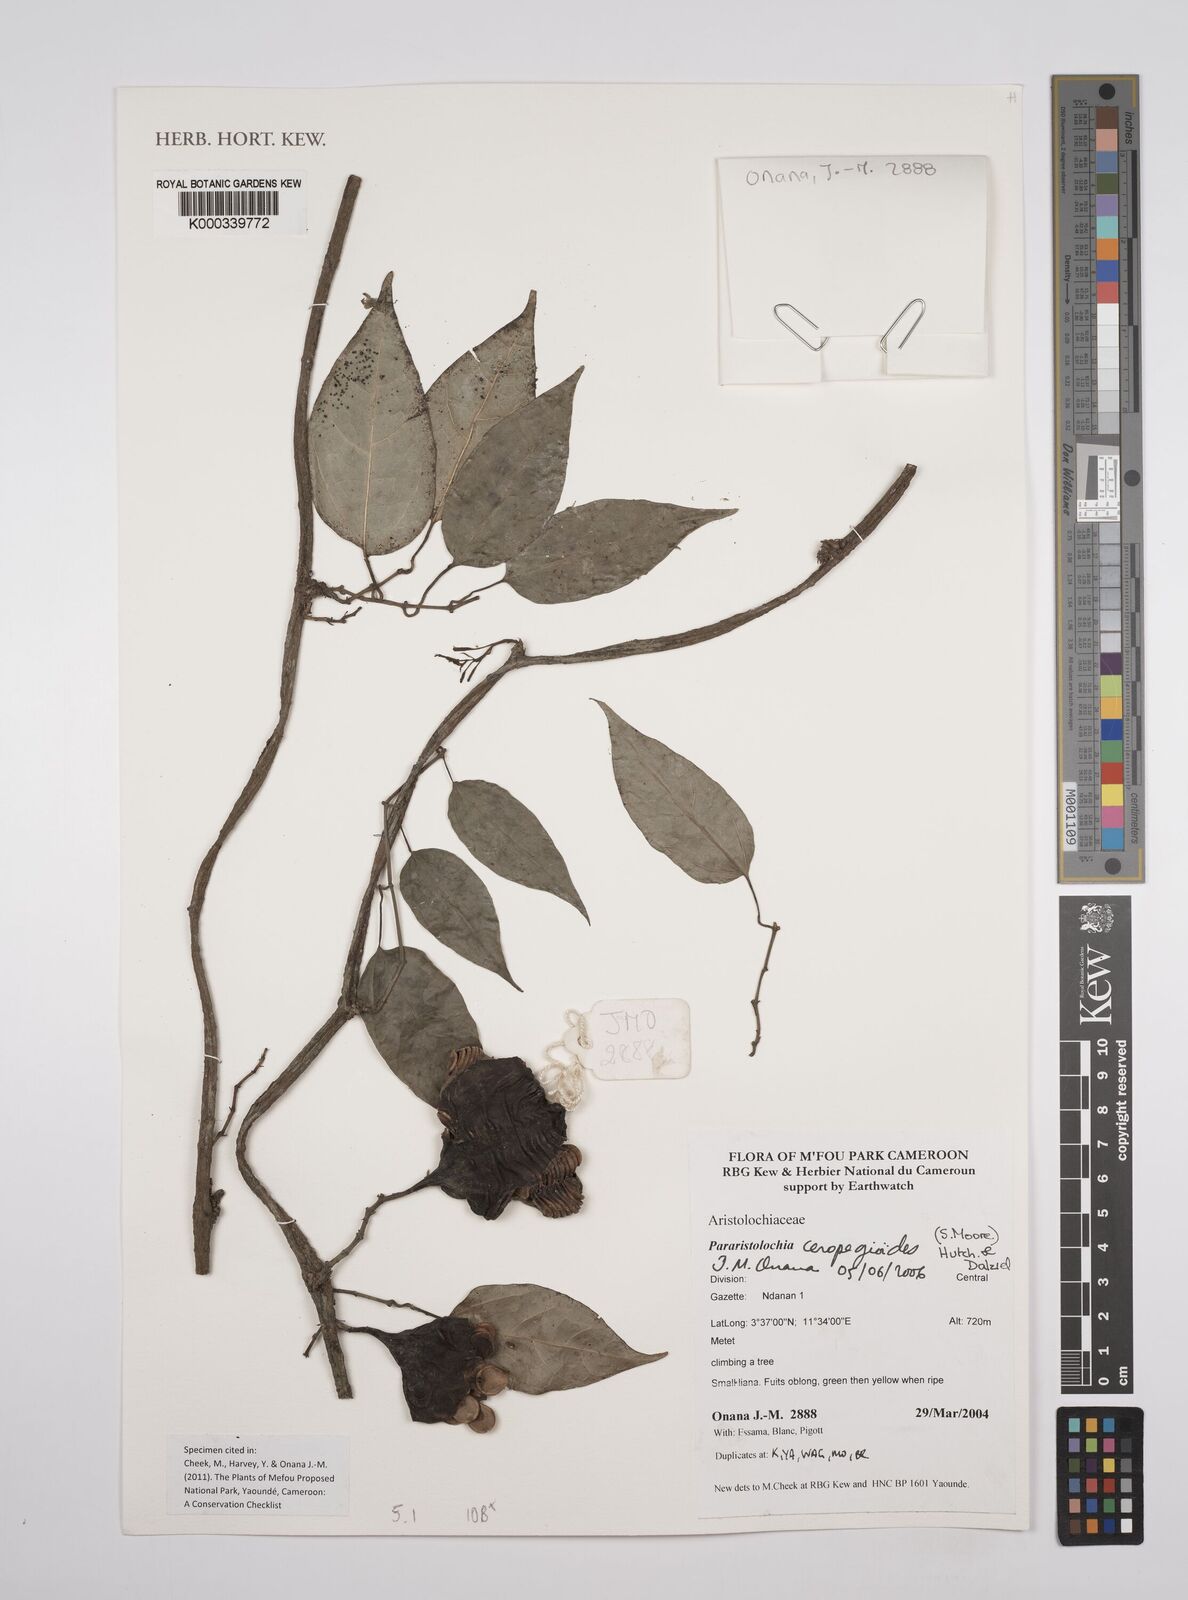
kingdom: Plantae
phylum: Tracheophyta
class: Magnoliopsida
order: Piperales
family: Aristolochiaceae
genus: Aristolochia
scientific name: Aristolochia ceropegioides
